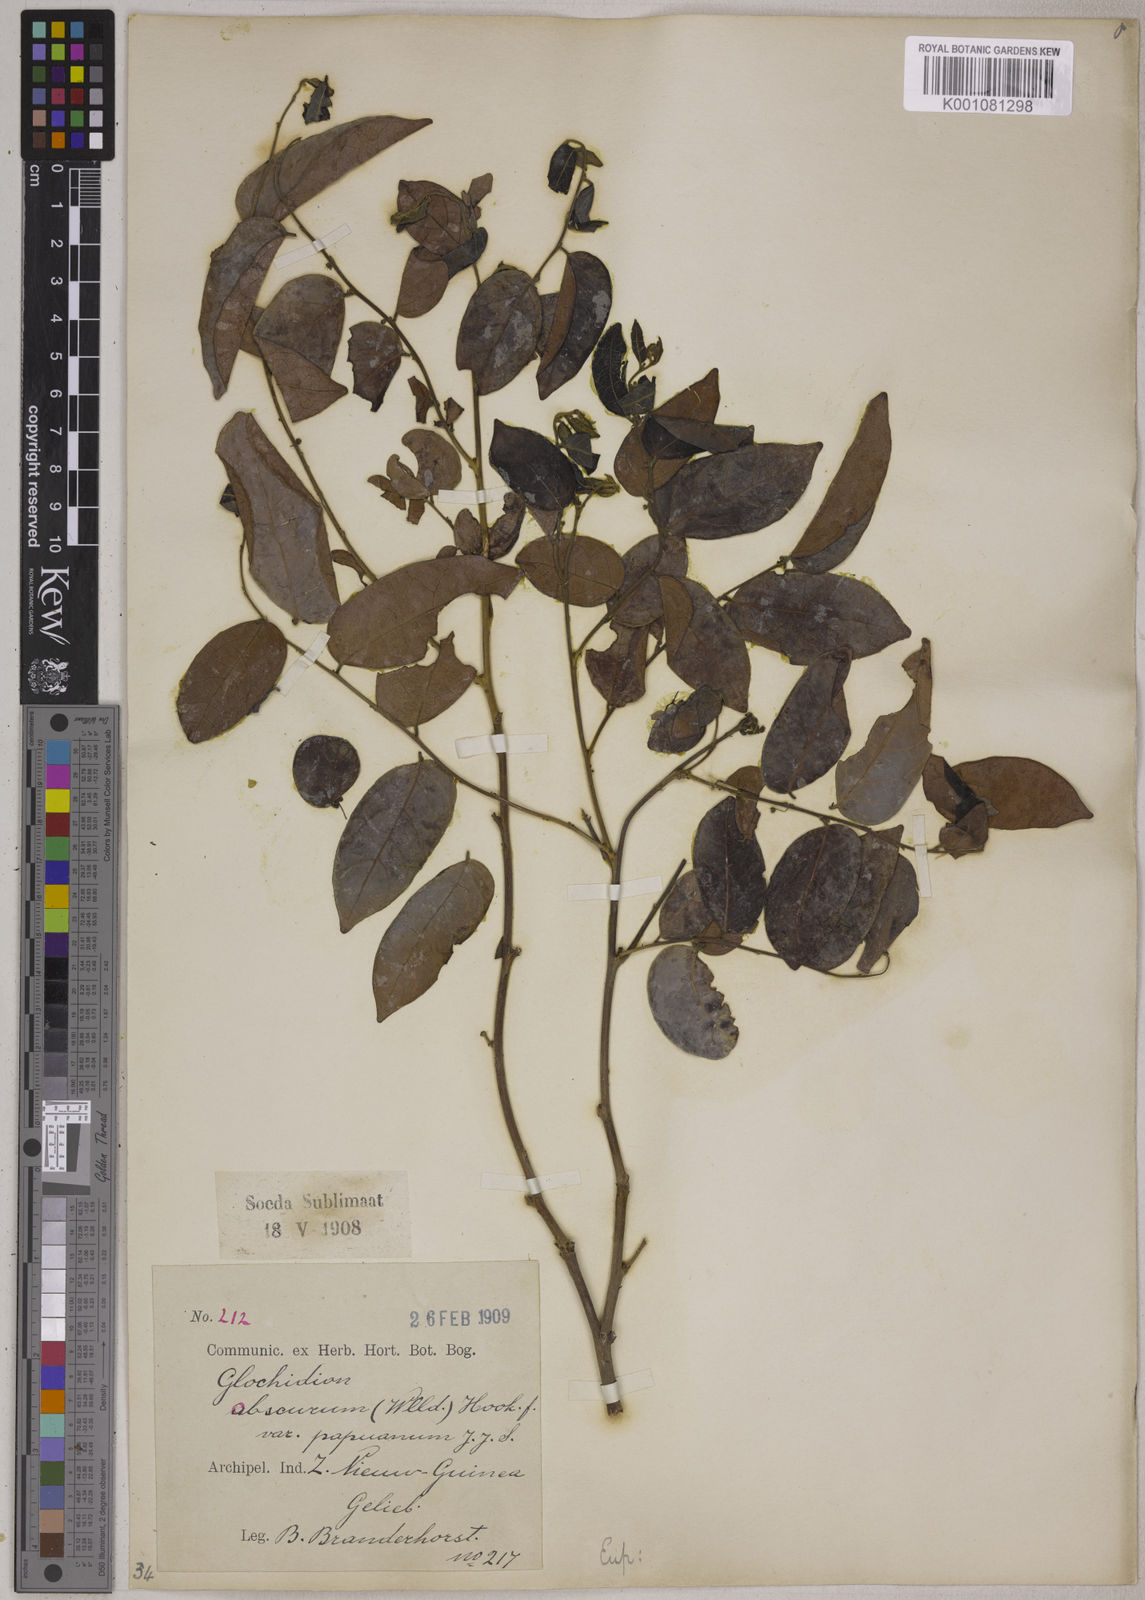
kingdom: Plantae
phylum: Tracheophyta
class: Magnoliopsida
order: Malpighiales
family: Phyllanthaceae
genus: Glochidion
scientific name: Glochidion benthamianum
